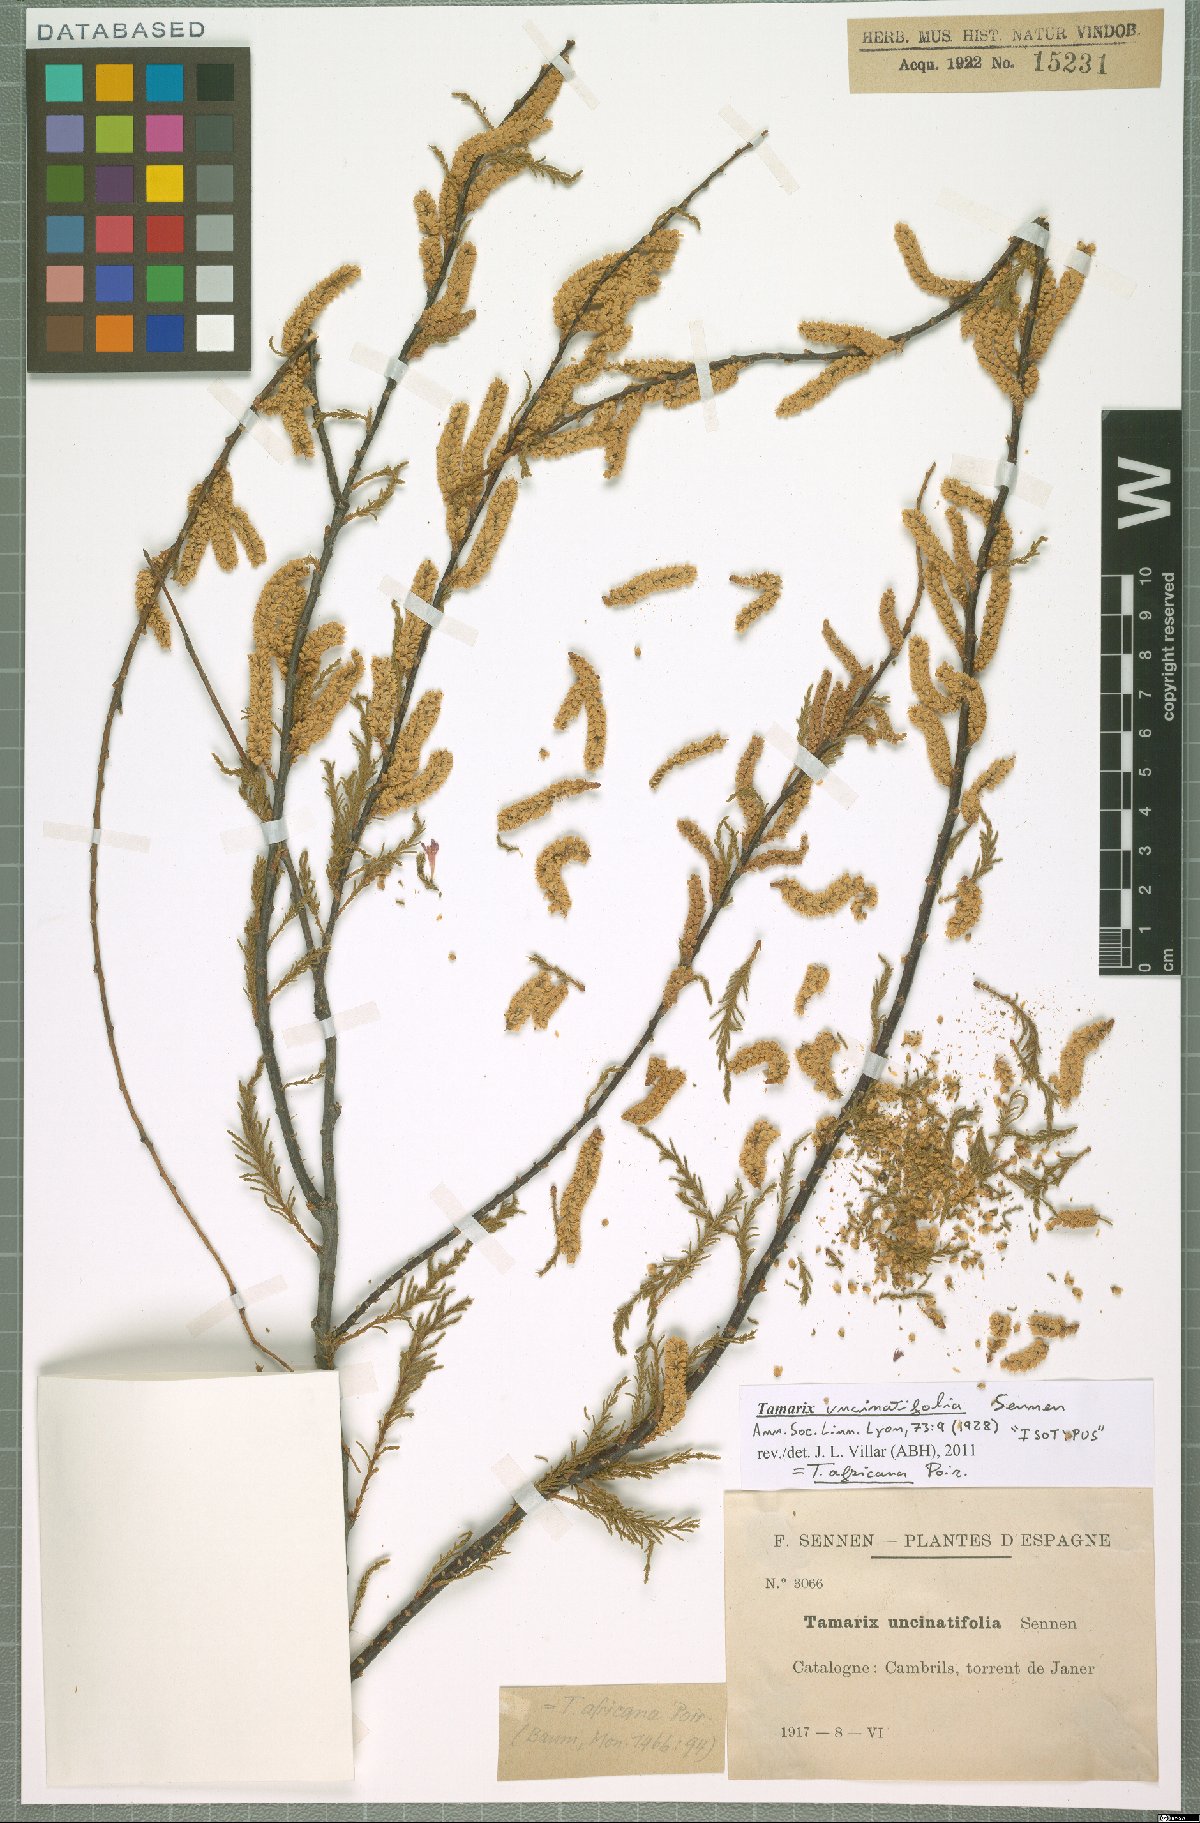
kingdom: Plantae
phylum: Tracheophyta
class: Magnoliopsida
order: Caryophyllales
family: Tamaricaceae
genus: Tamarix
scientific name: Tamarix africana
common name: African tamarisk
